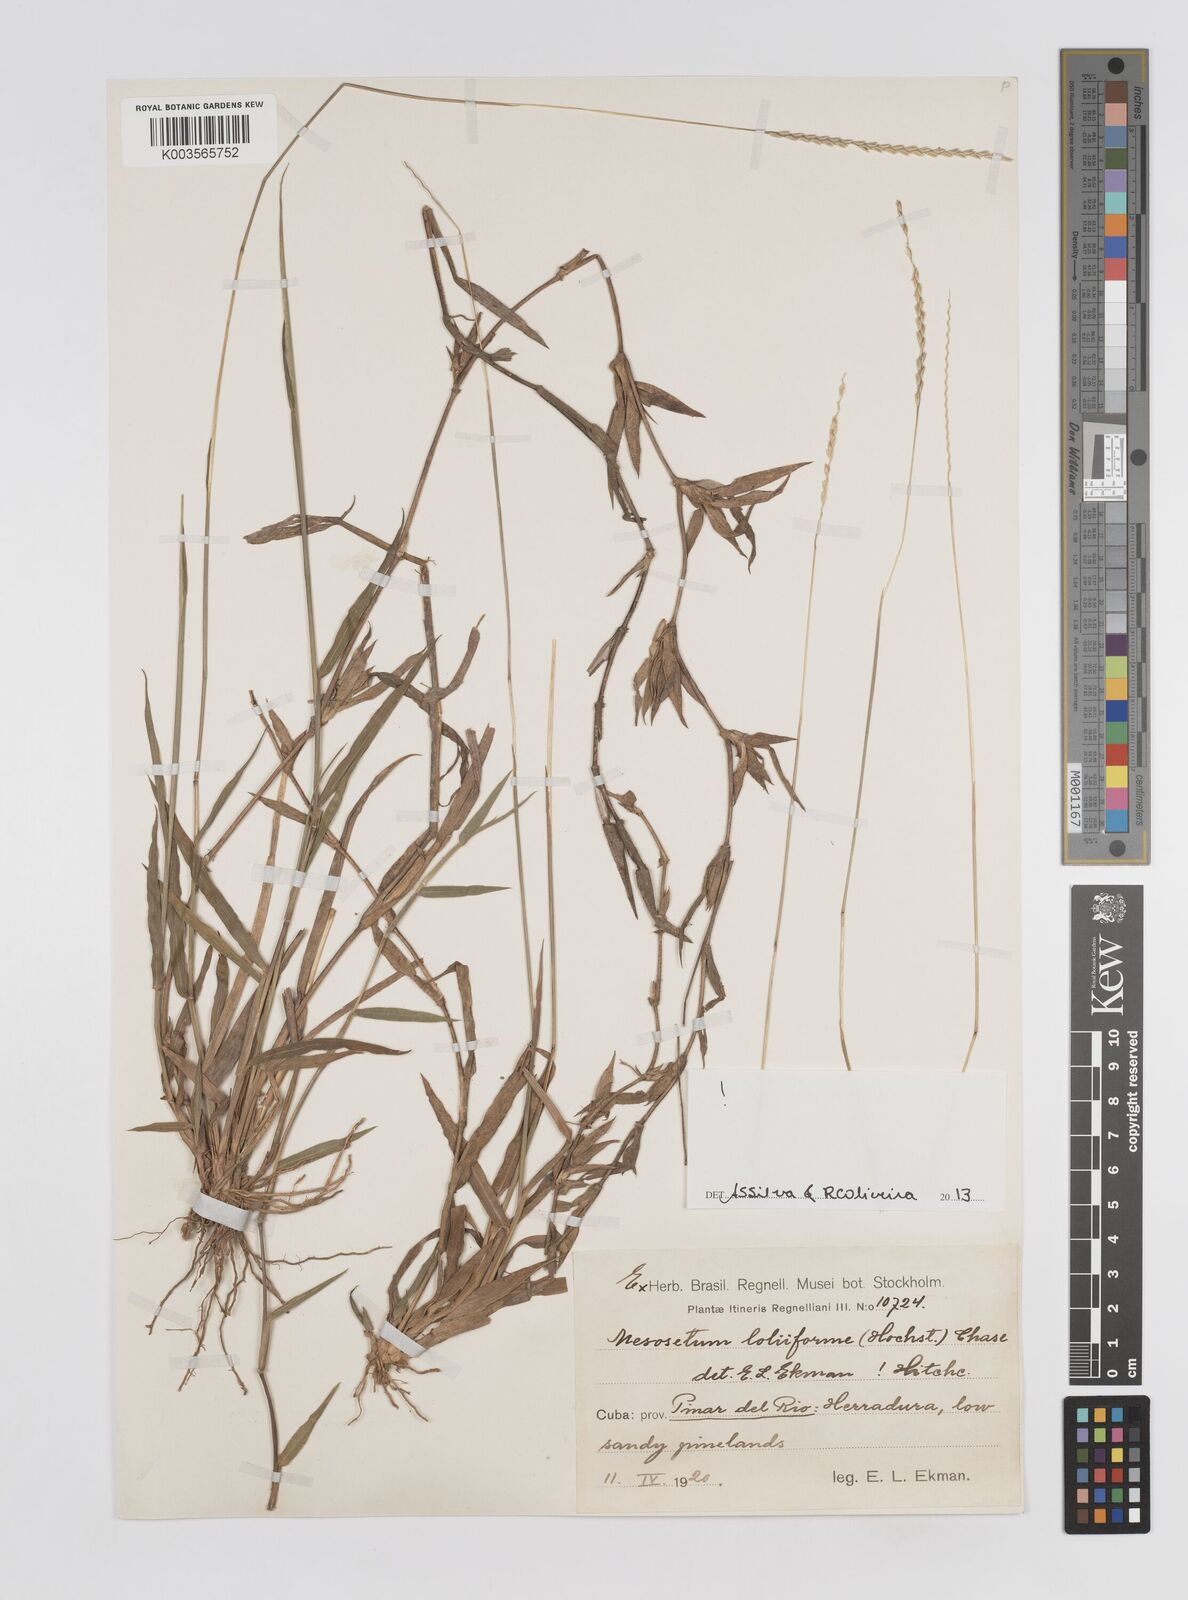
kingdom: Plantae
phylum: Tracheophyta
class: Liliopsida
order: Poales
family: Poaceae
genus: Mesosetum
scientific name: Mesosetum loliiforme
